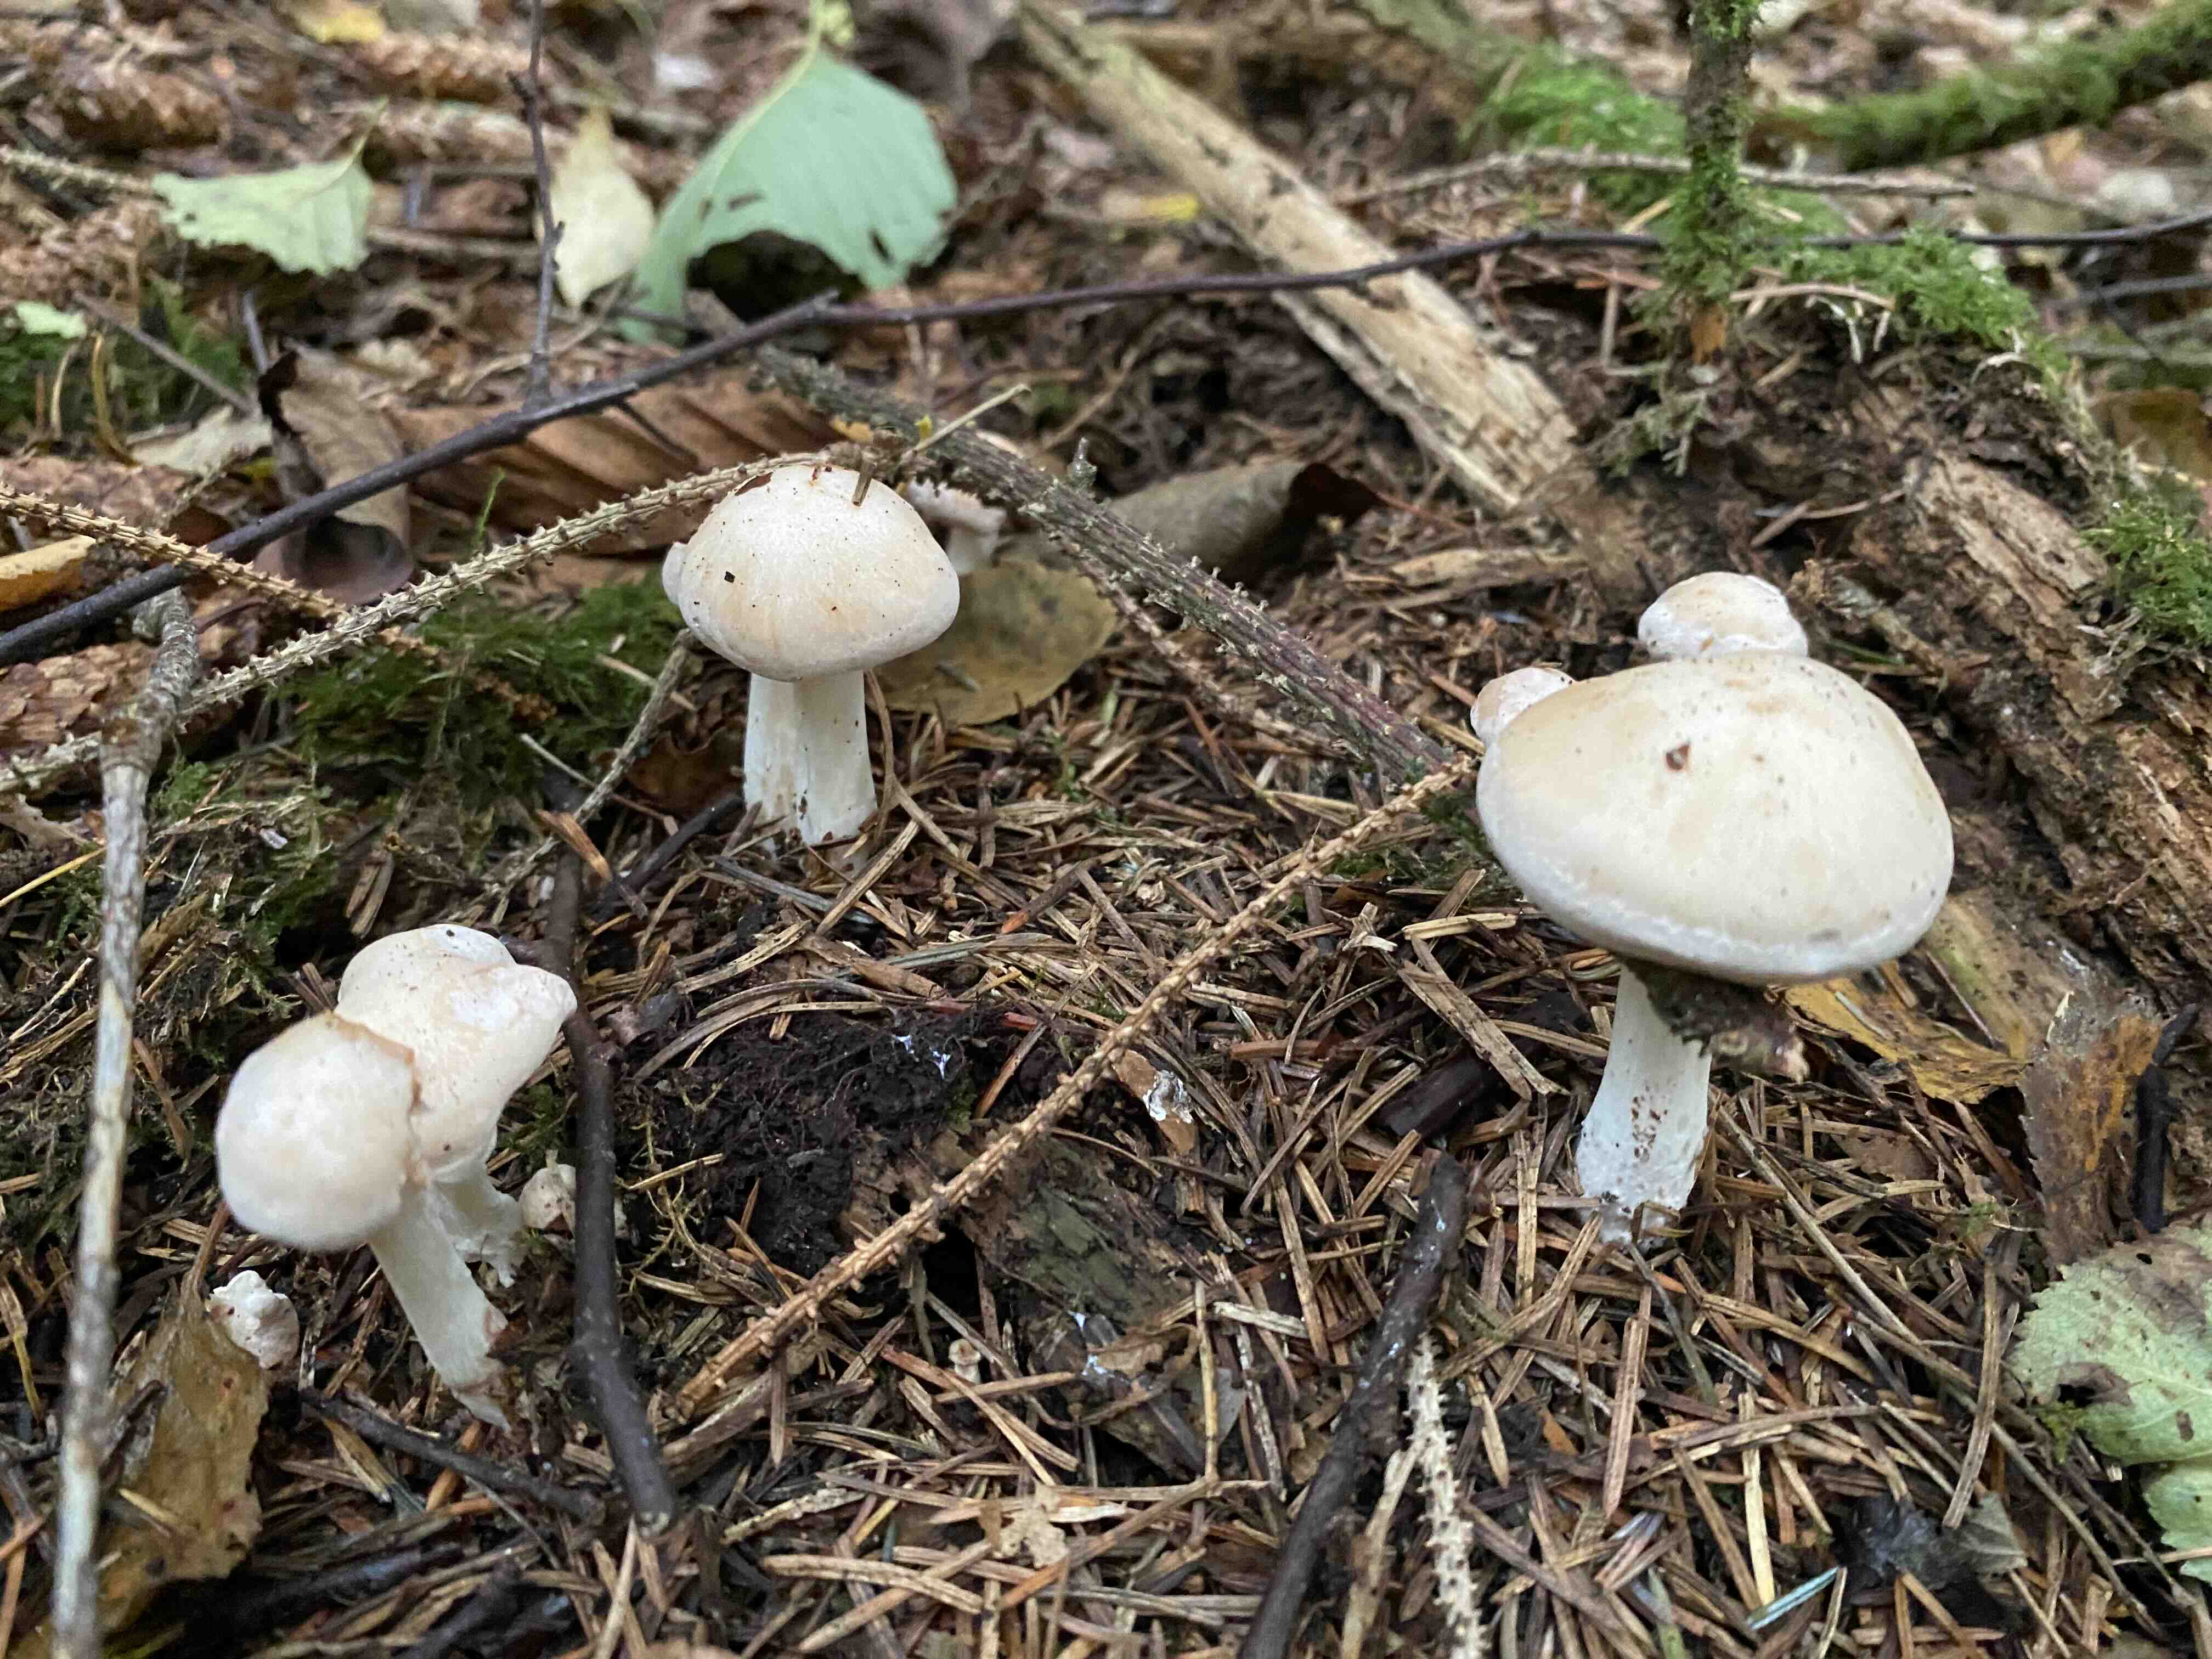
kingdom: Fungi
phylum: Basidiomycota
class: Agaricomycetes
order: Agaricales
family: Omphalotaceae
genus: Rhodocollybia
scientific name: Rhodocollybia maculata
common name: plettet fladhat
